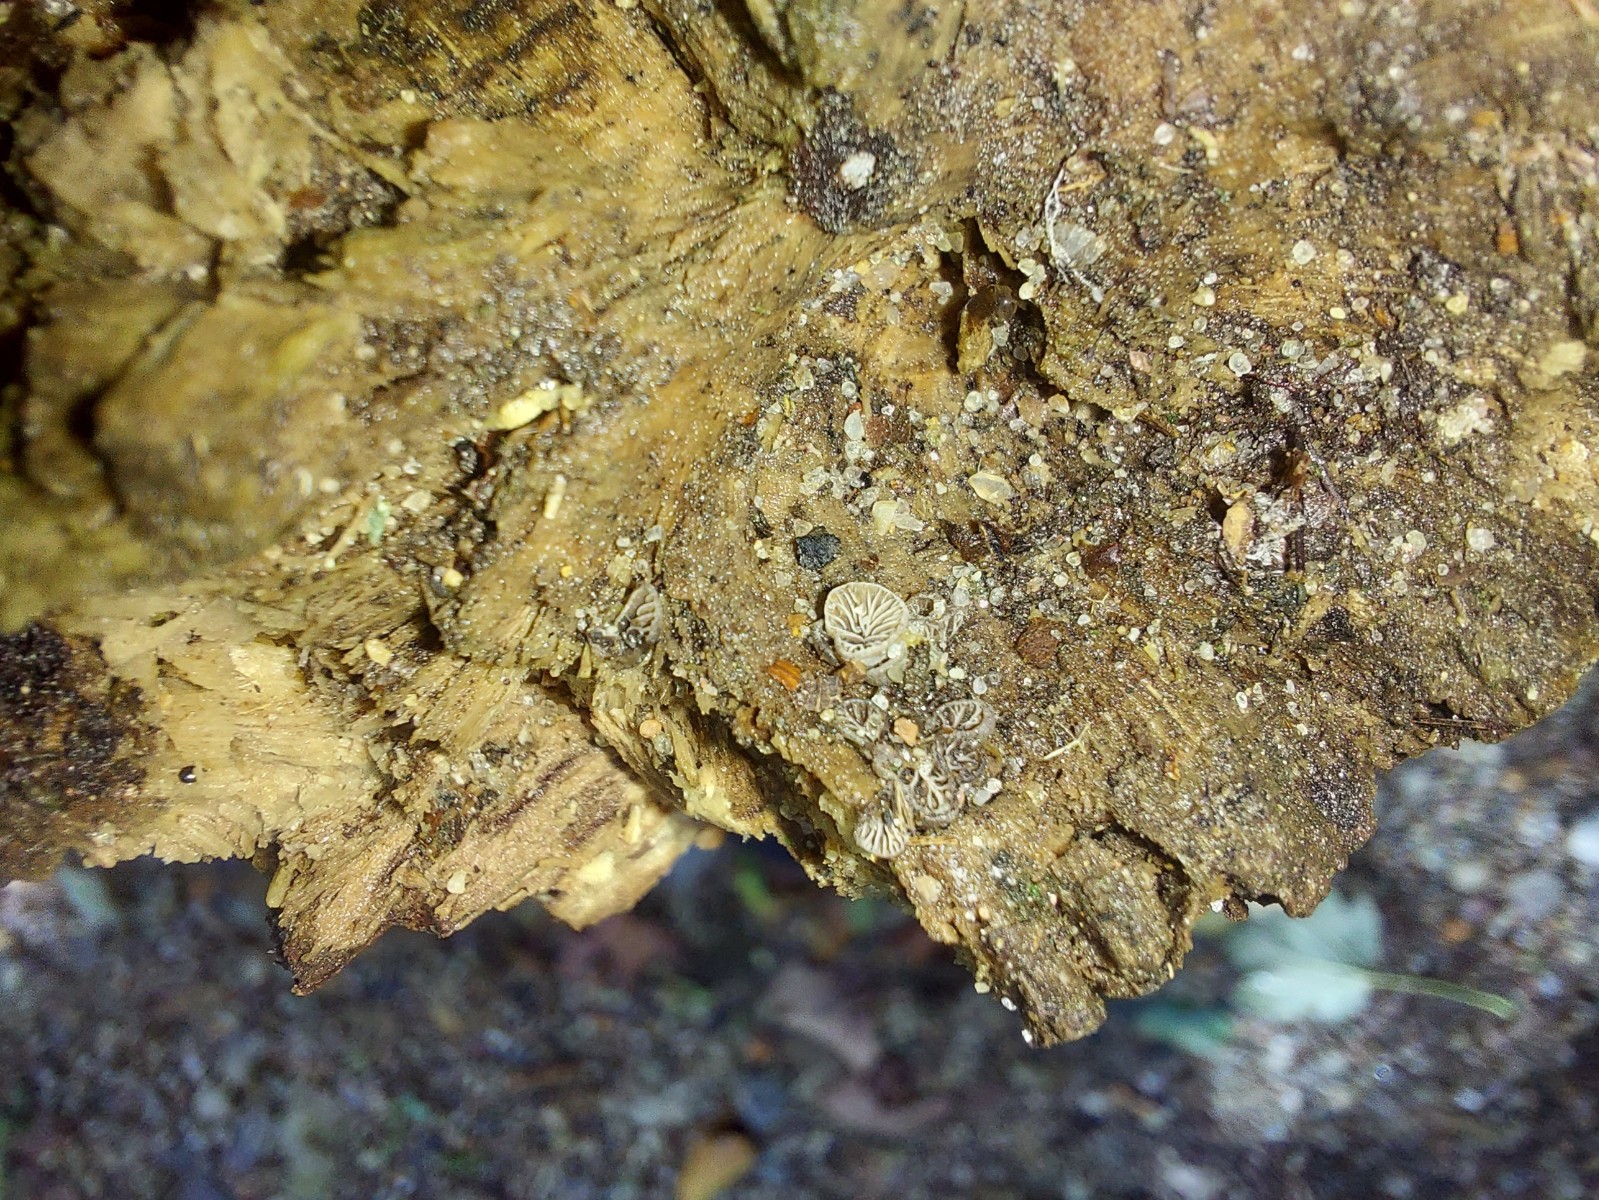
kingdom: Fungi
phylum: Basidiomycota
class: Agaricomycetes
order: Agaricales
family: Pleurotaceae
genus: Resupinatus
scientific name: Resupinatus
